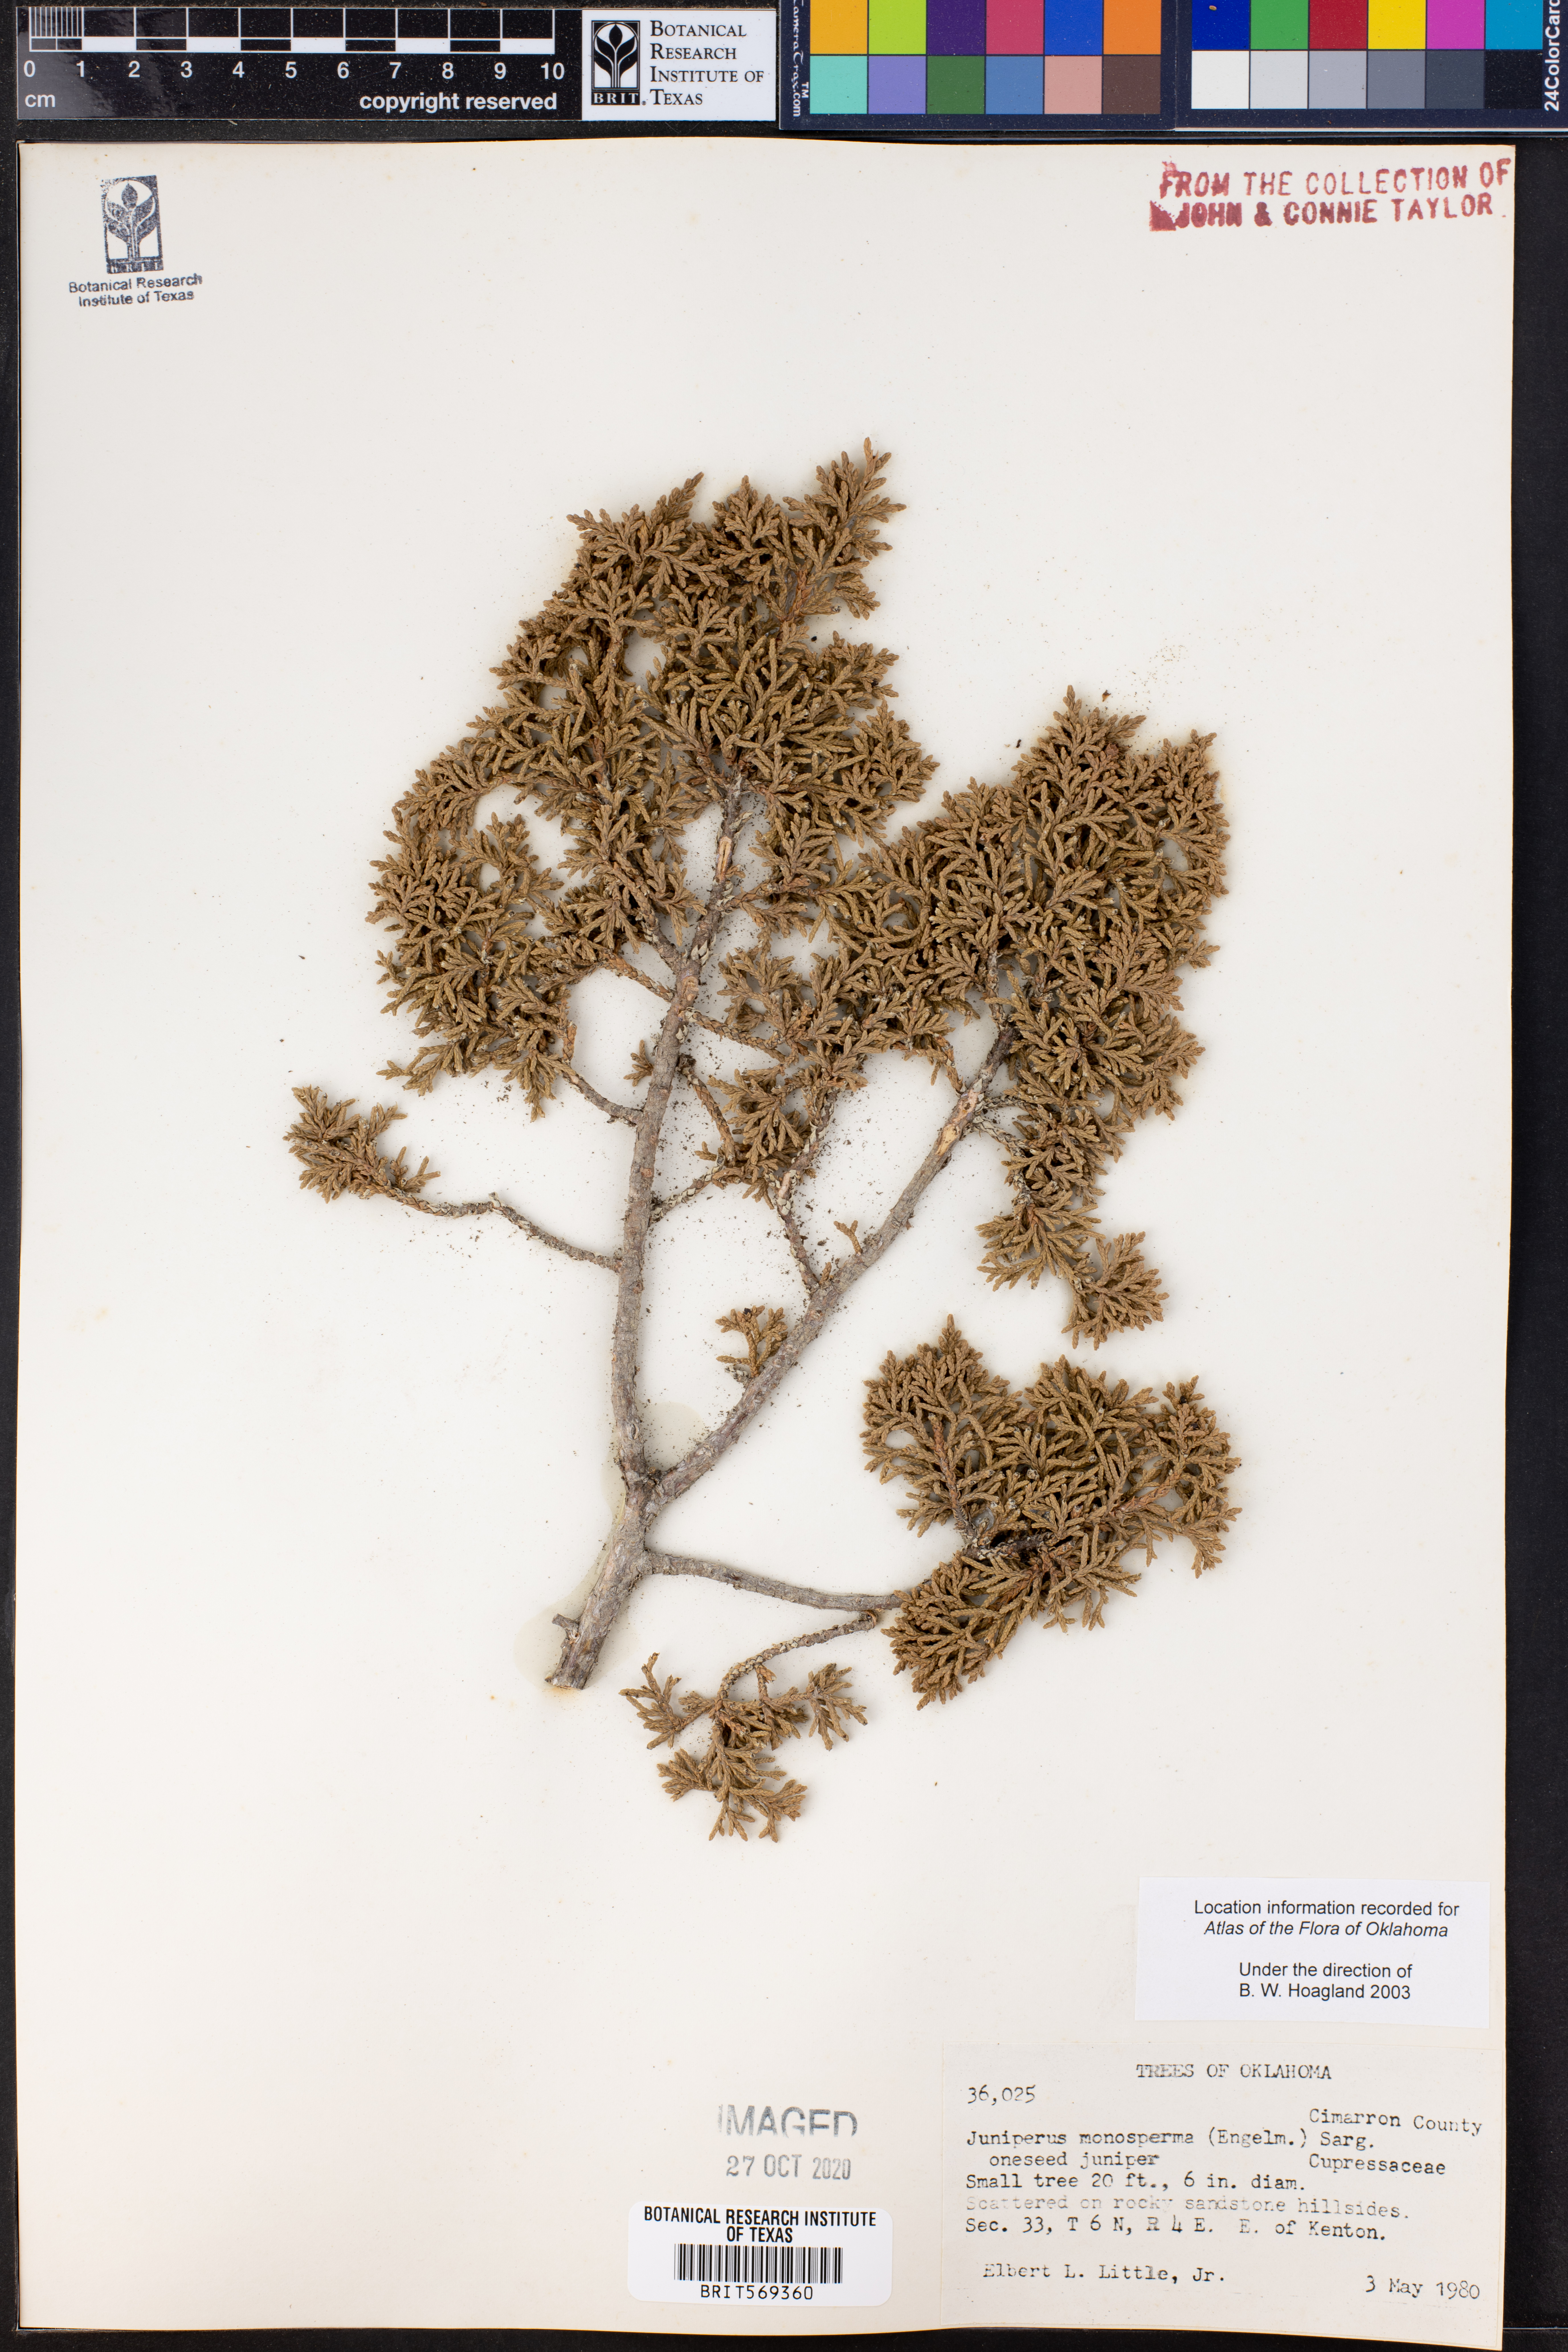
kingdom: Plantae
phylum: Tracheophyta
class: Pinopsida
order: Pinales
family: Cupressaceae
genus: Juniperus
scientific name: Juniperus monosperma
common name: One-seed juniper
